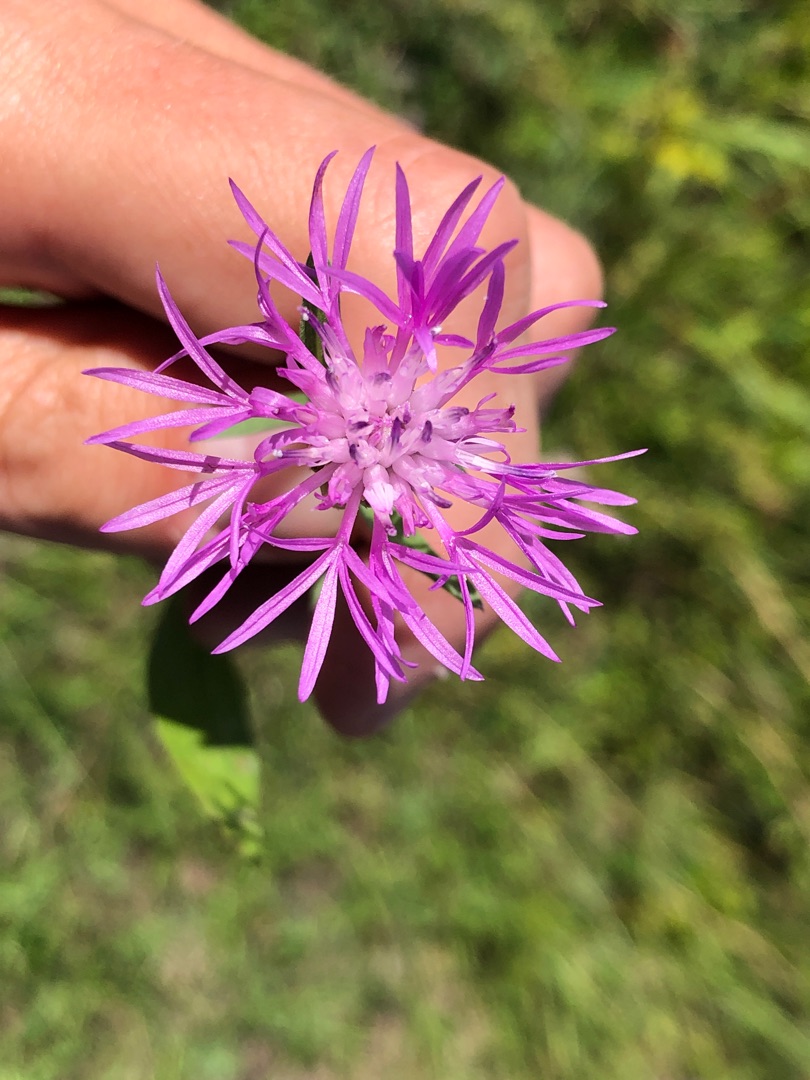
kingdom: Plantae
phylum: Tracheophyta
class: Magnoliopsida
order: Asterales
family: Asteraceae
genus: Centaurea
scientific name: Centaurea
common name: Knopurtslægten
